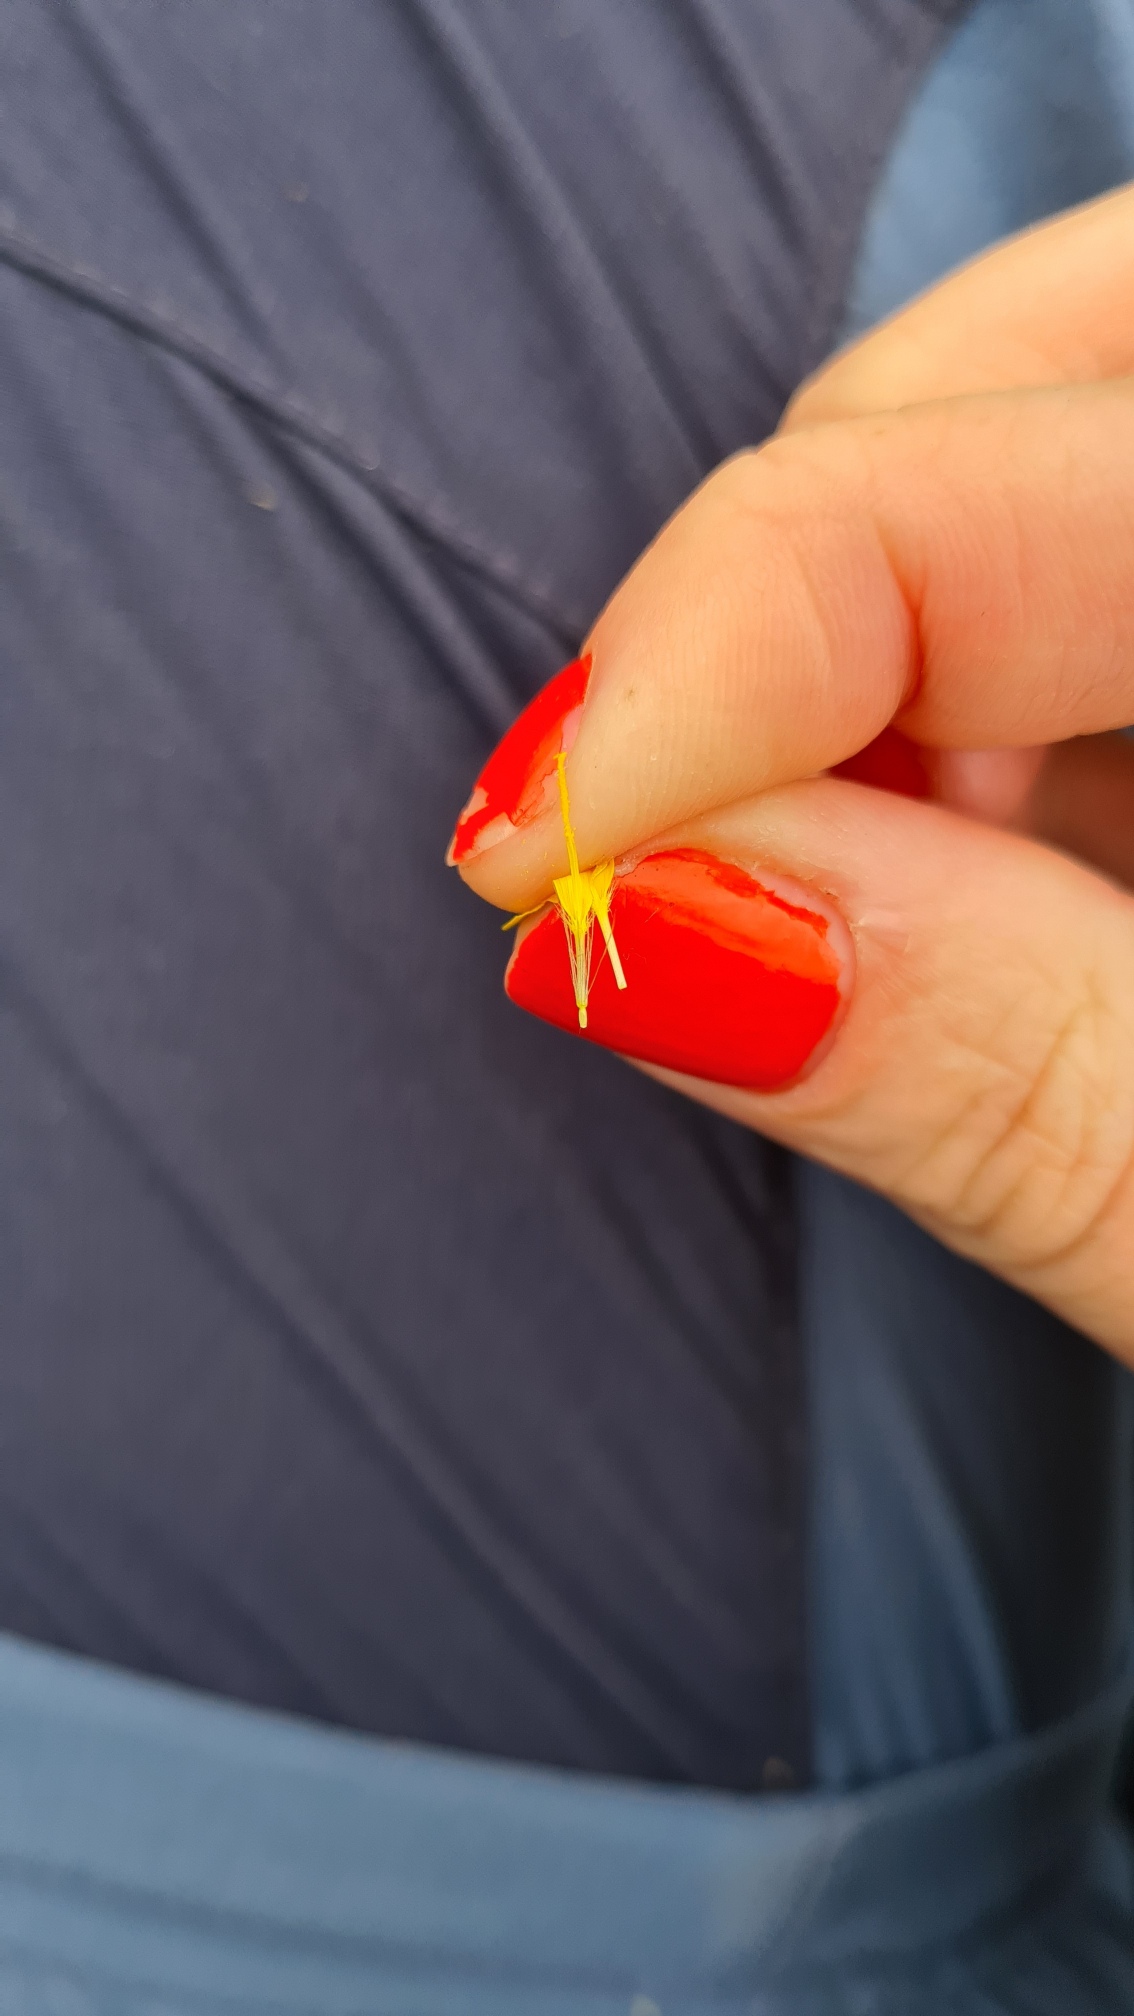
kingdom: Plantae
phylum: Tracheophyta
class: Magnoliopsida
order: Asterales
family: Asteraceae
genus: Thrincia
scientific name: Thrincia saxatilis
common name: Hundesalat
